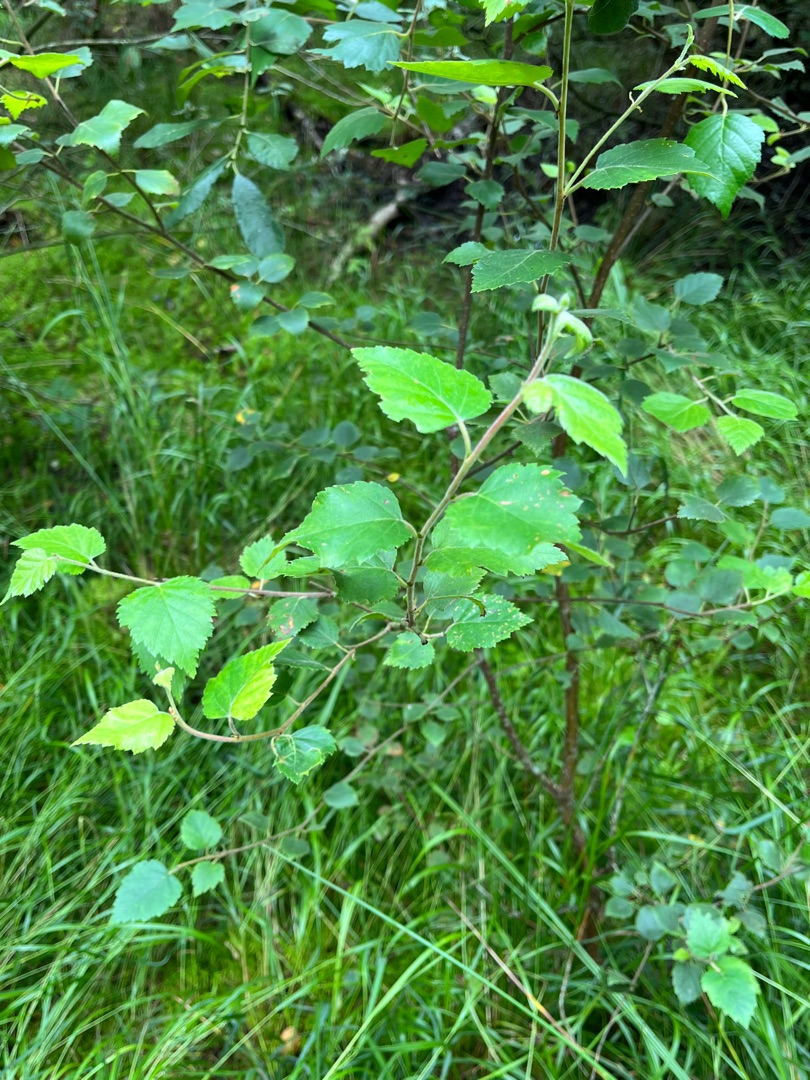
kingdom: Plantae
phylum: Tracheophyta
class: Magnoliopsida
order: Fagales
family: Betulaceae
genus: Betula
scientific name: Betula pubescens
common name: Dun-birk
